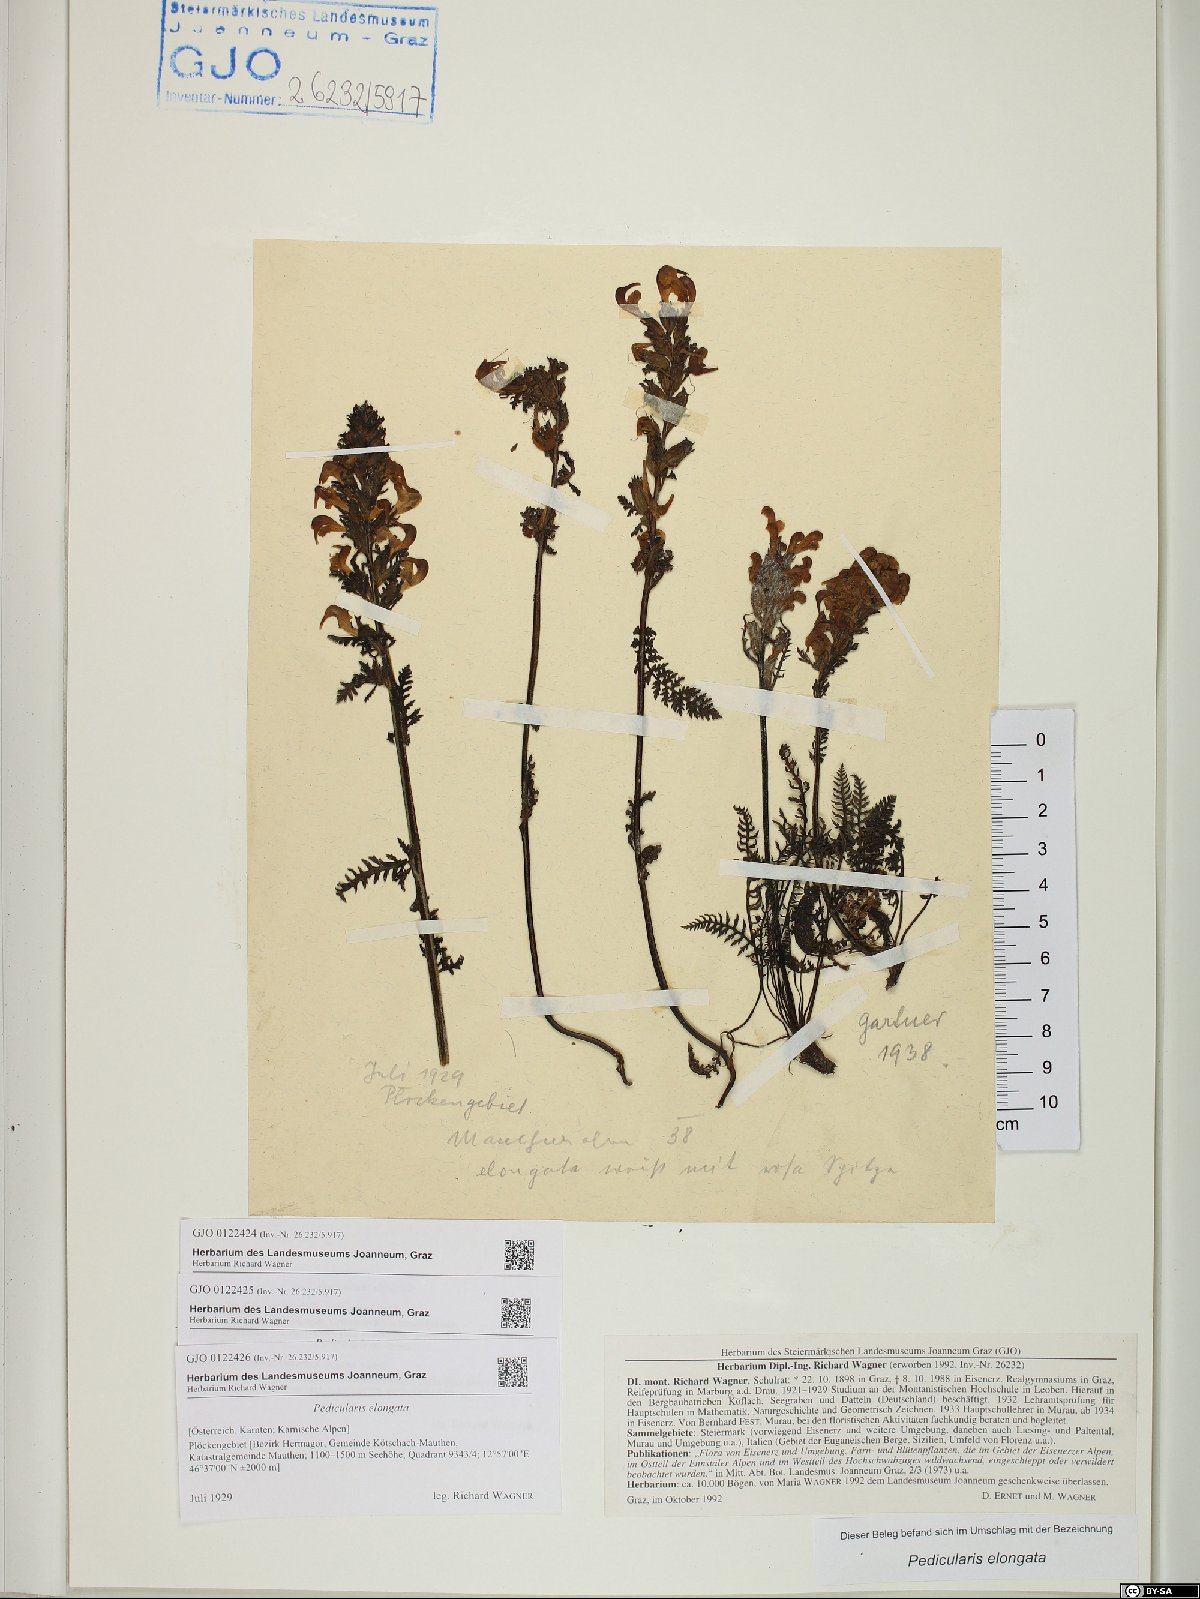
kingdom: Plantae
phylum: Tracheophyta
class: Magnoliopsida
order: Lamiales
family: Orobanchaceae
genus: Pedicularis
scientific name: Pedicularis elongata
